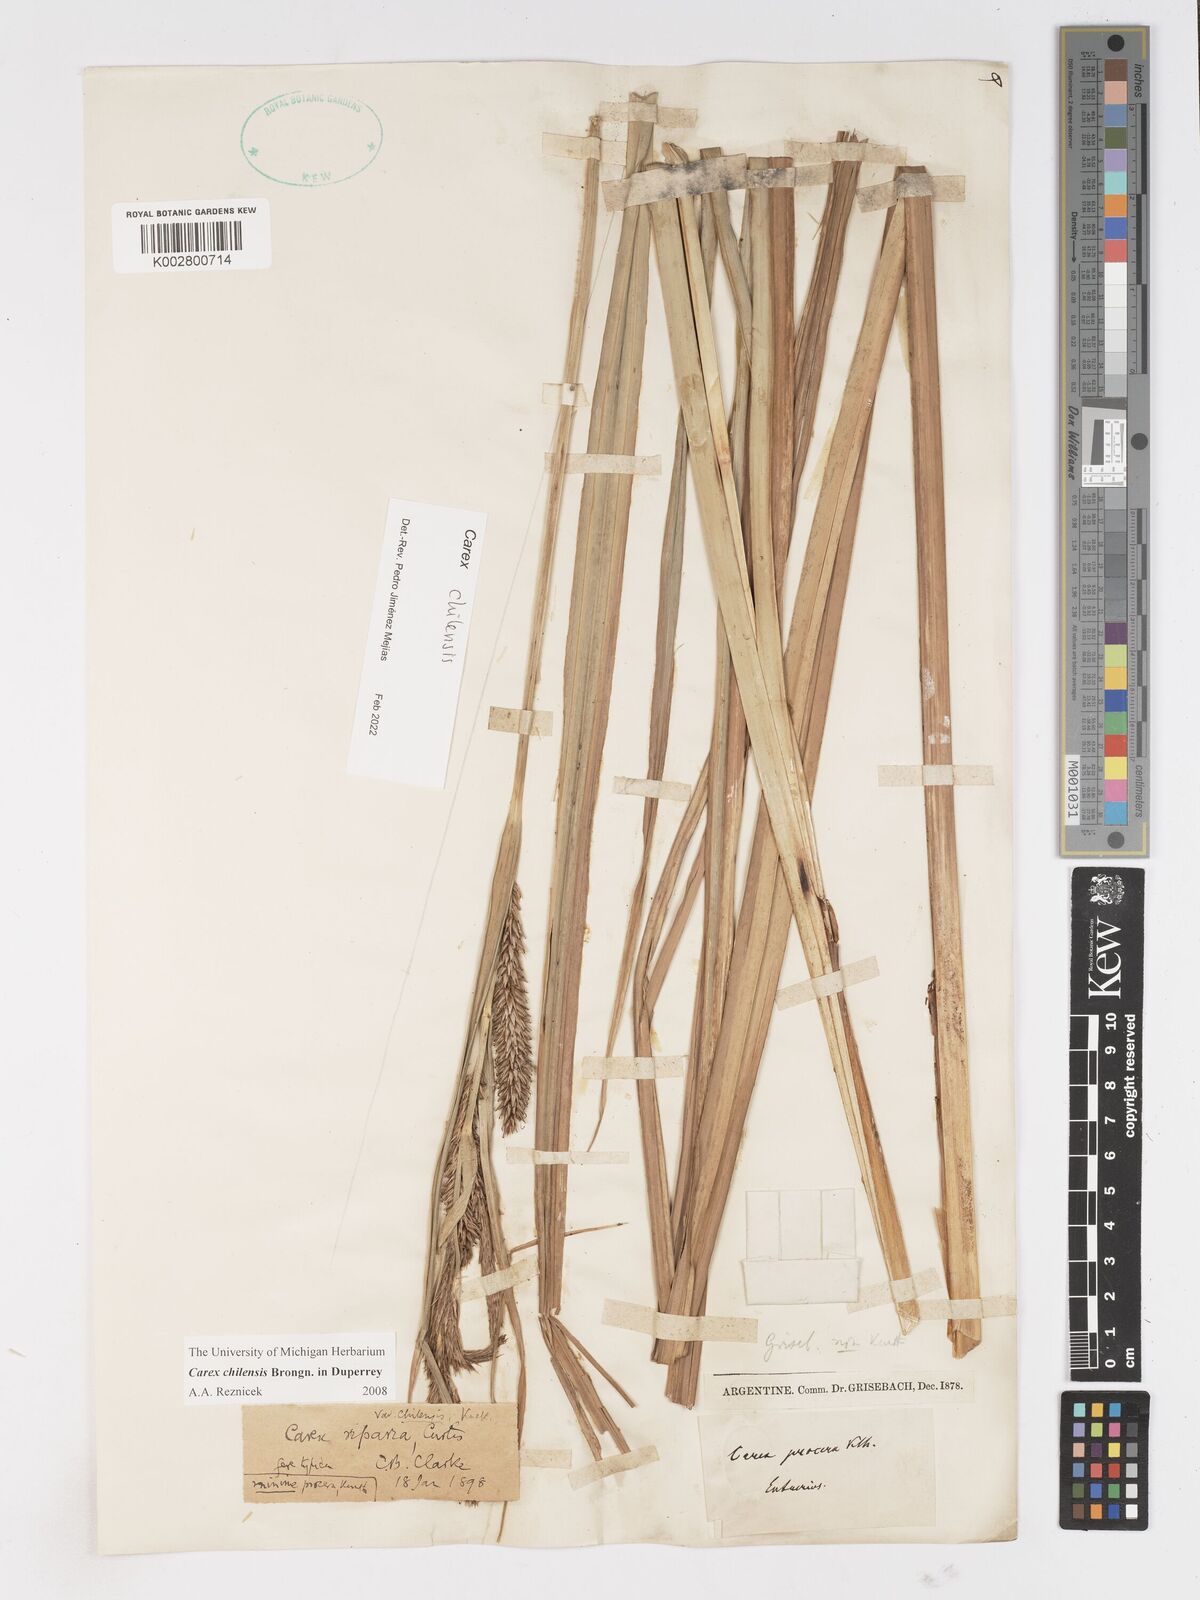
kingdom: Plantae
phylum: Tracheophyta
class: Liliopsida
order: Poales
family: Cyperaceae
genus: Carex
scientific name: Carex chilensis
